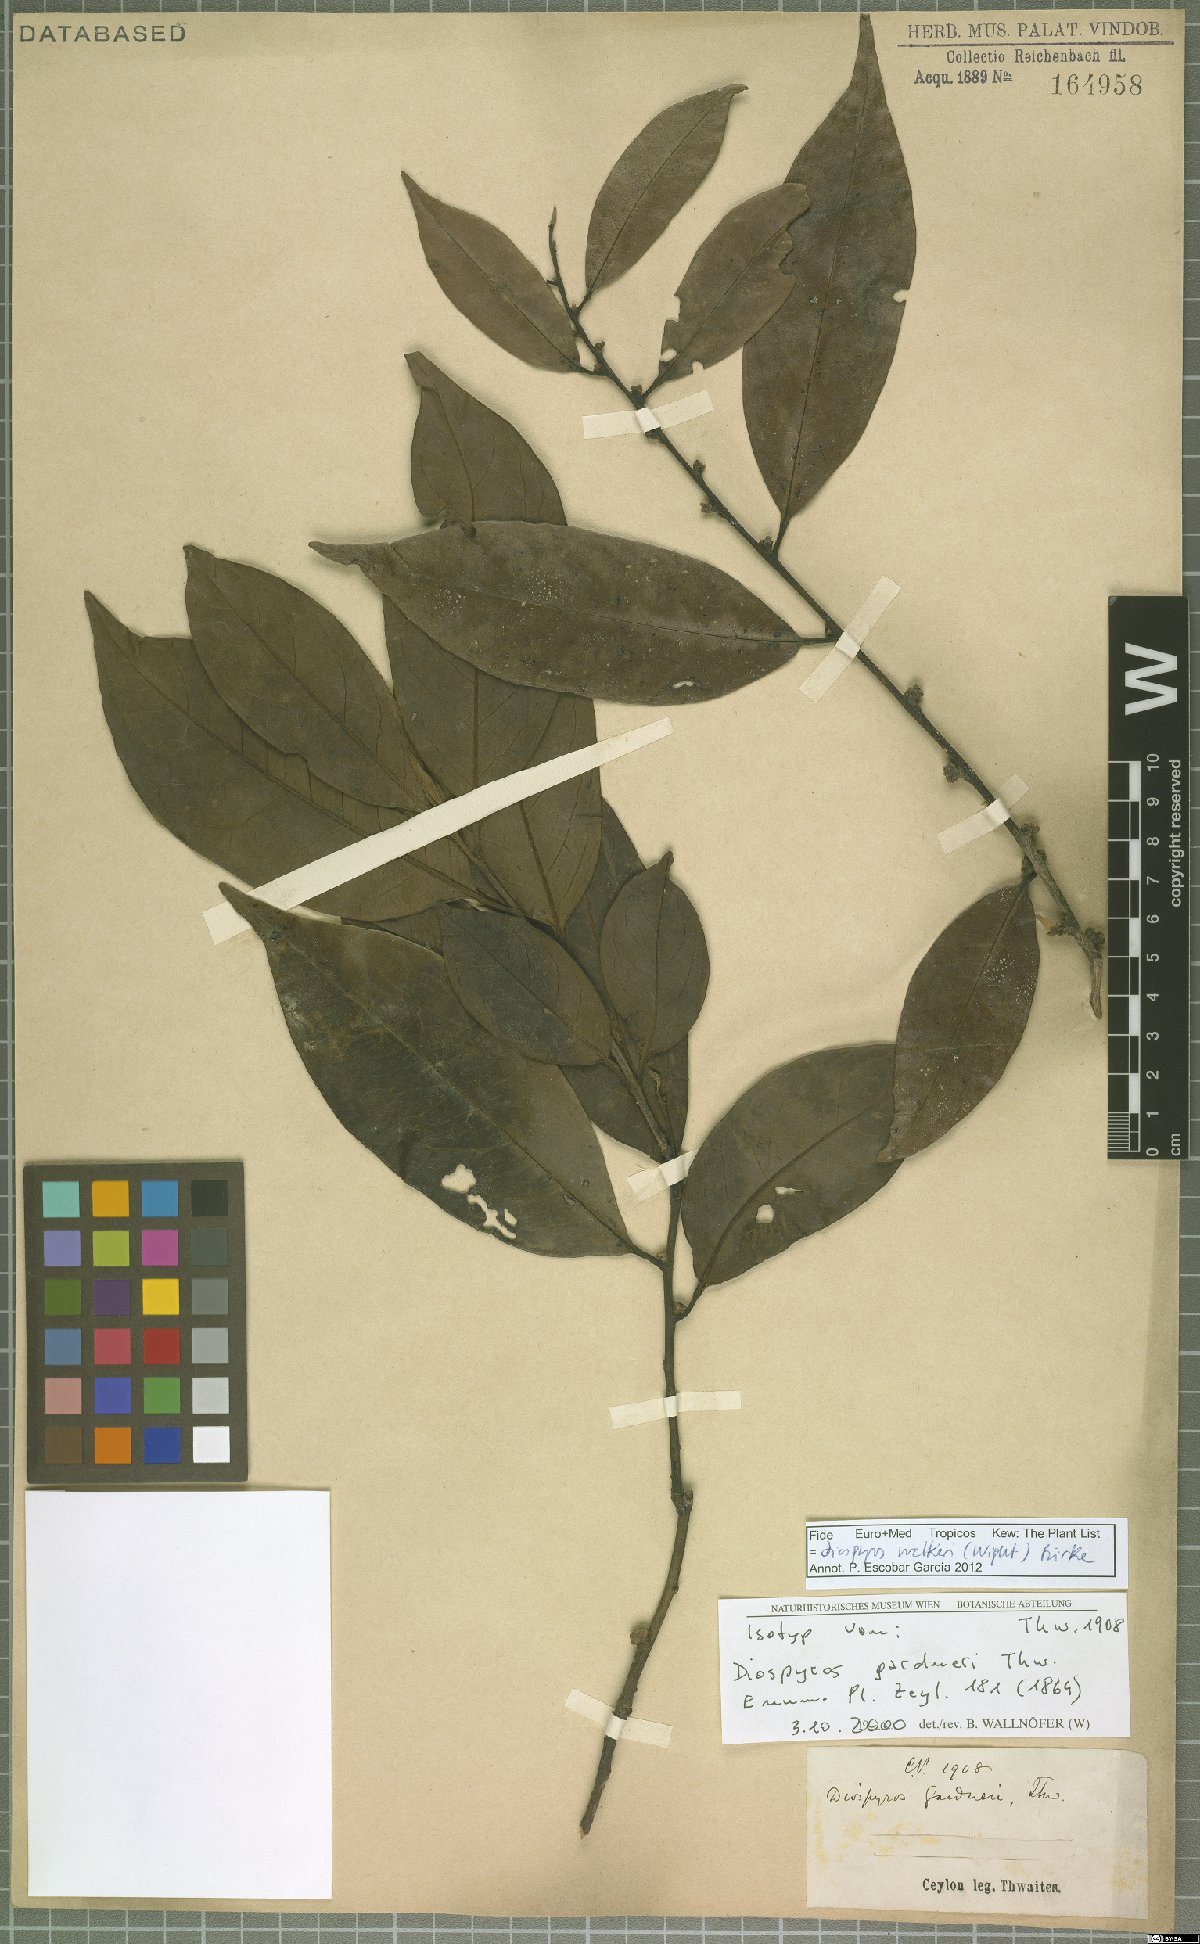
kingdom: Plantae
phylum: Tracheophyta
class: Magnoliopsida
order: Ericales
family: Ebenaceae
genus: Diospyros
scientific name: Diospyros walkeri
